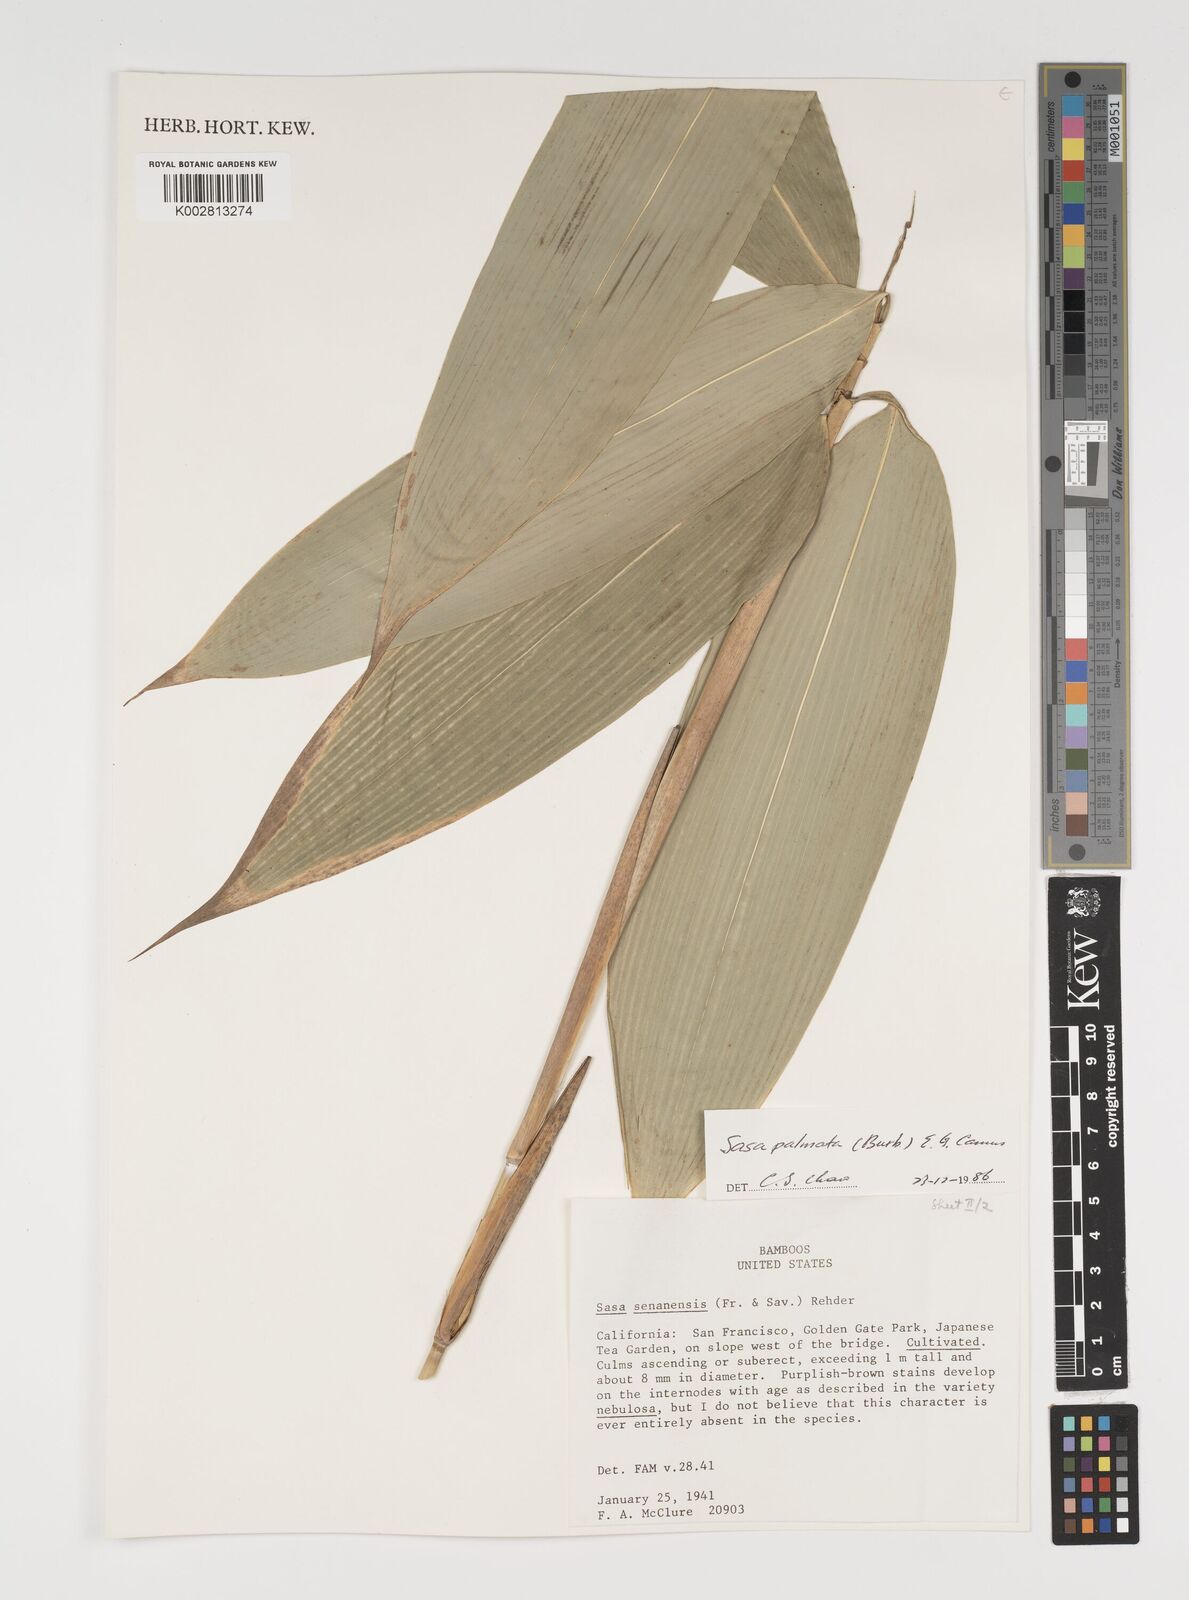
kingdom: Plantae
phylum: Tracheophyta
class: Liliopsida
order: Poales
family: Poaceae
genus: Sasa
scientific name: Sasa senanensis
